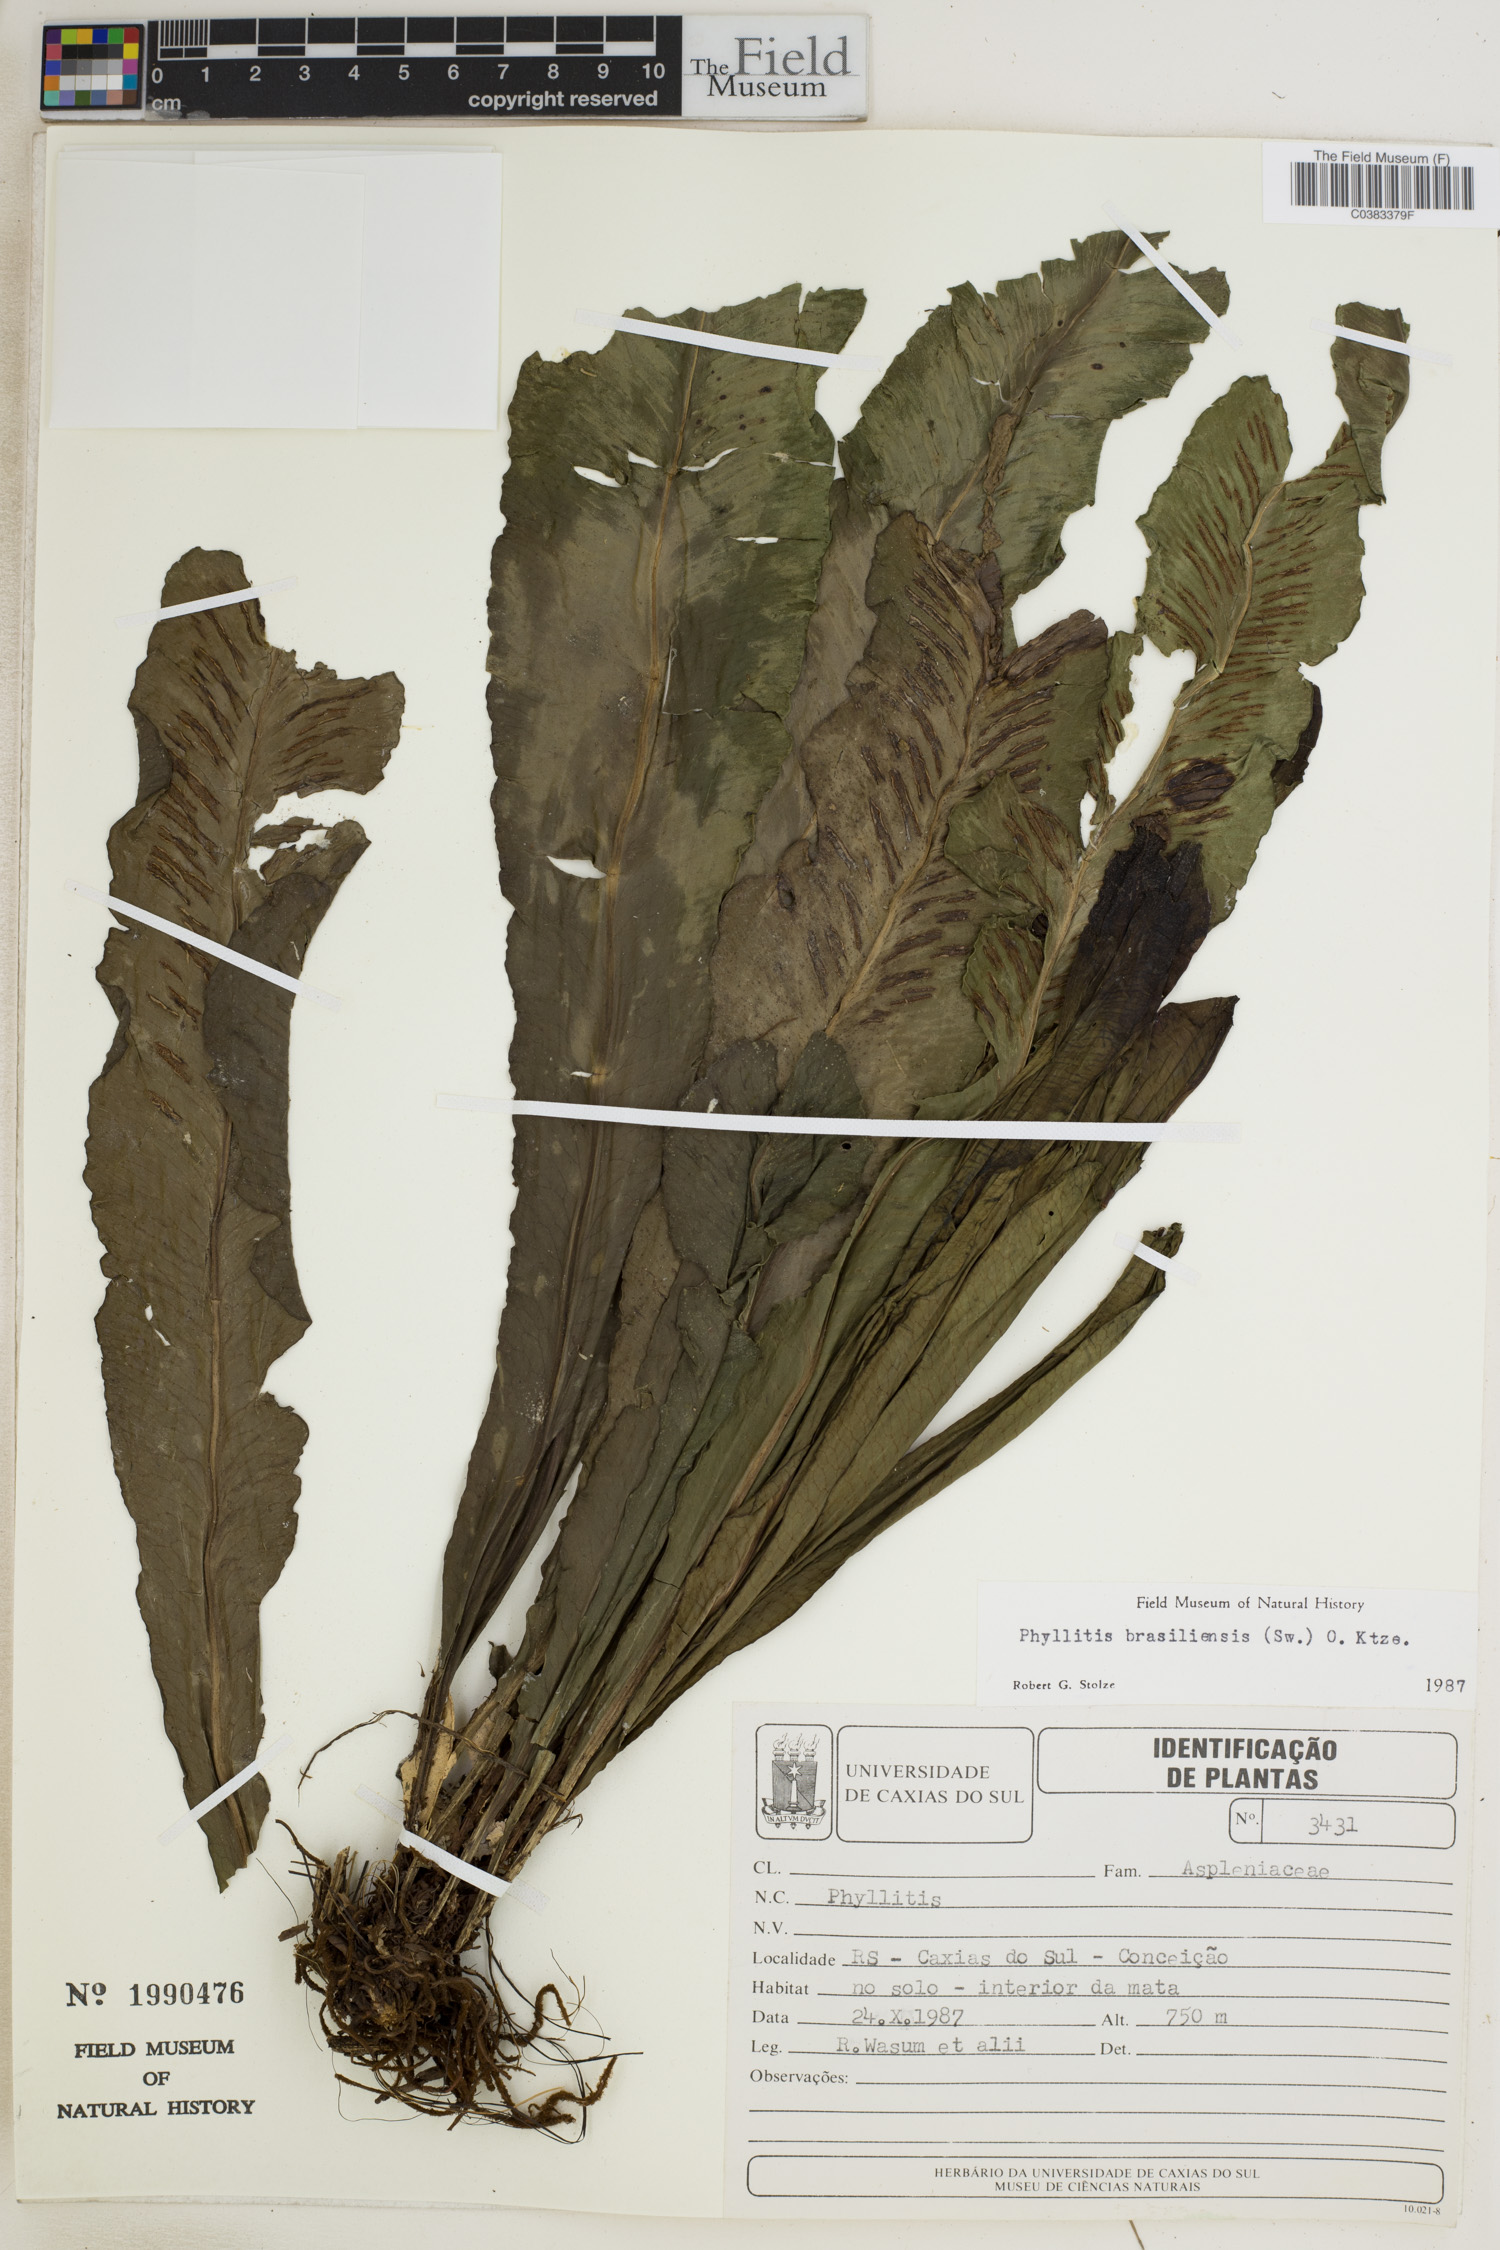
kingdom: Plantae
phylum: Tracheophyta
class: Polypodiopsida
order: Polypodiales
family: Aspleniaceae
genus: Asplenium
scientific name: Asplenium brasiliense
